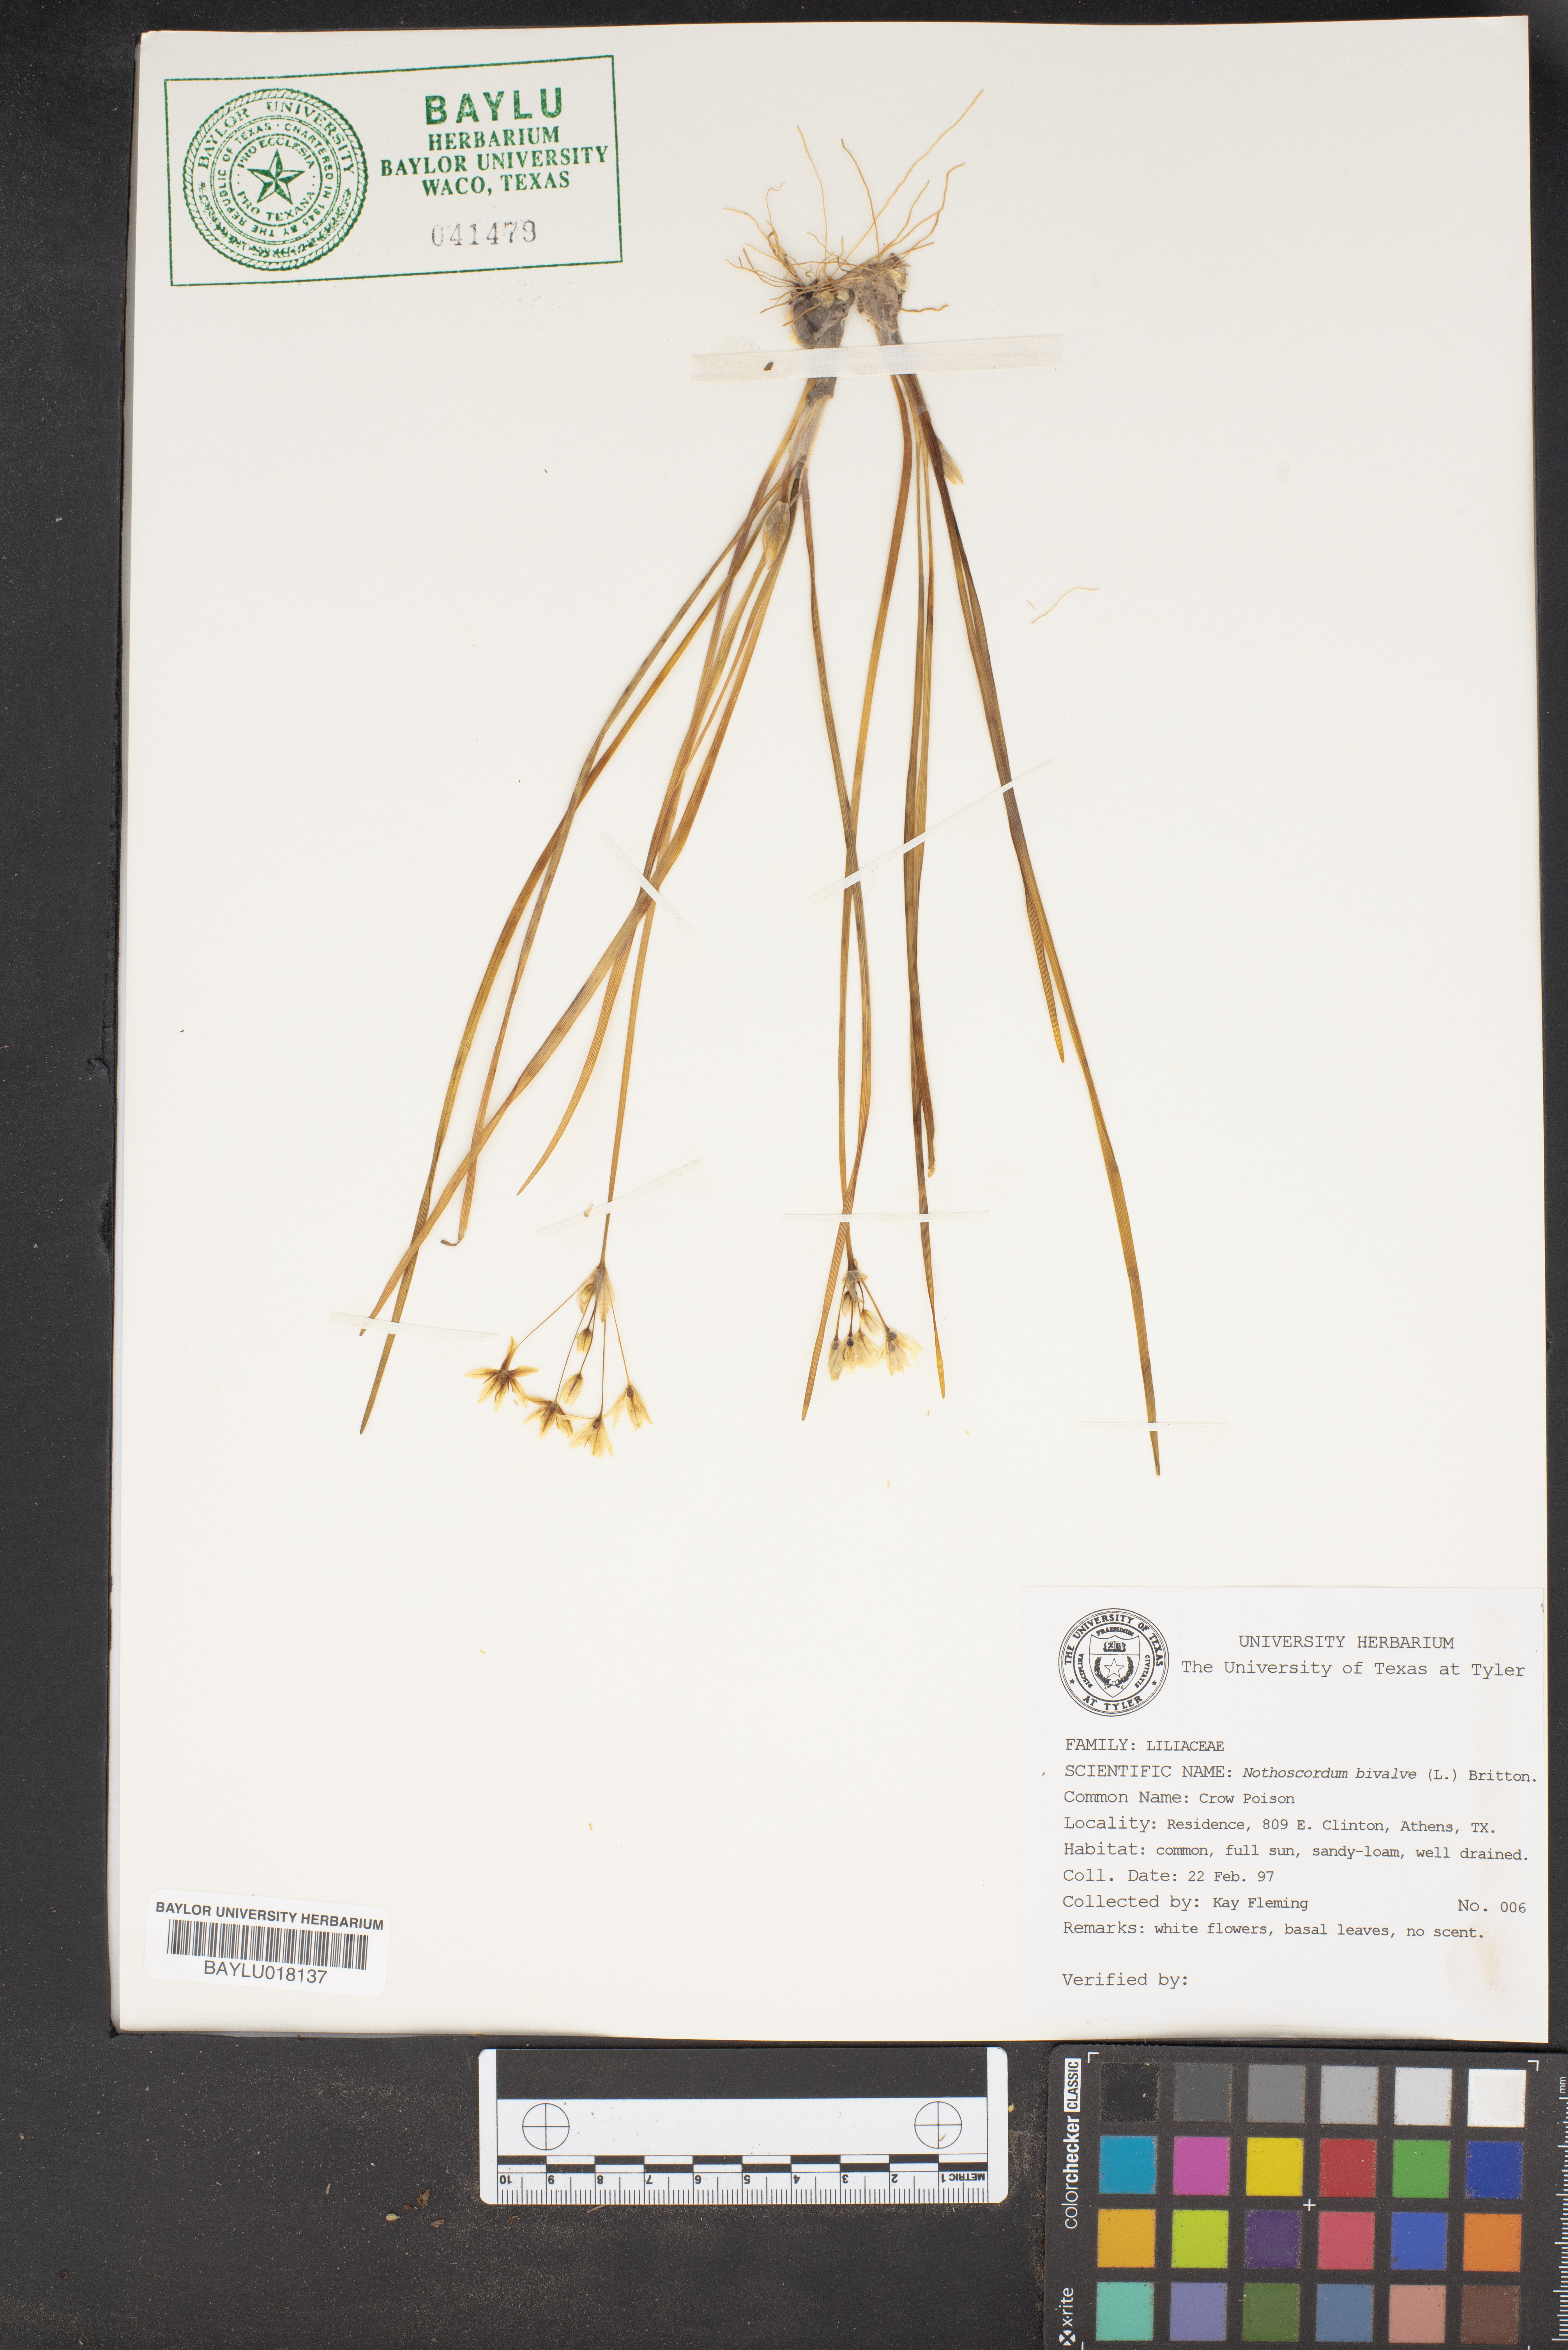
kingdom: Plantae
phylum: Tracheophyta
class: Liliopsida
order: Asparagales
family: Amaryllidaceae
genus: Nothoscordum
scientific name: Nothoscordum bivalve
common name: Crow-poison
